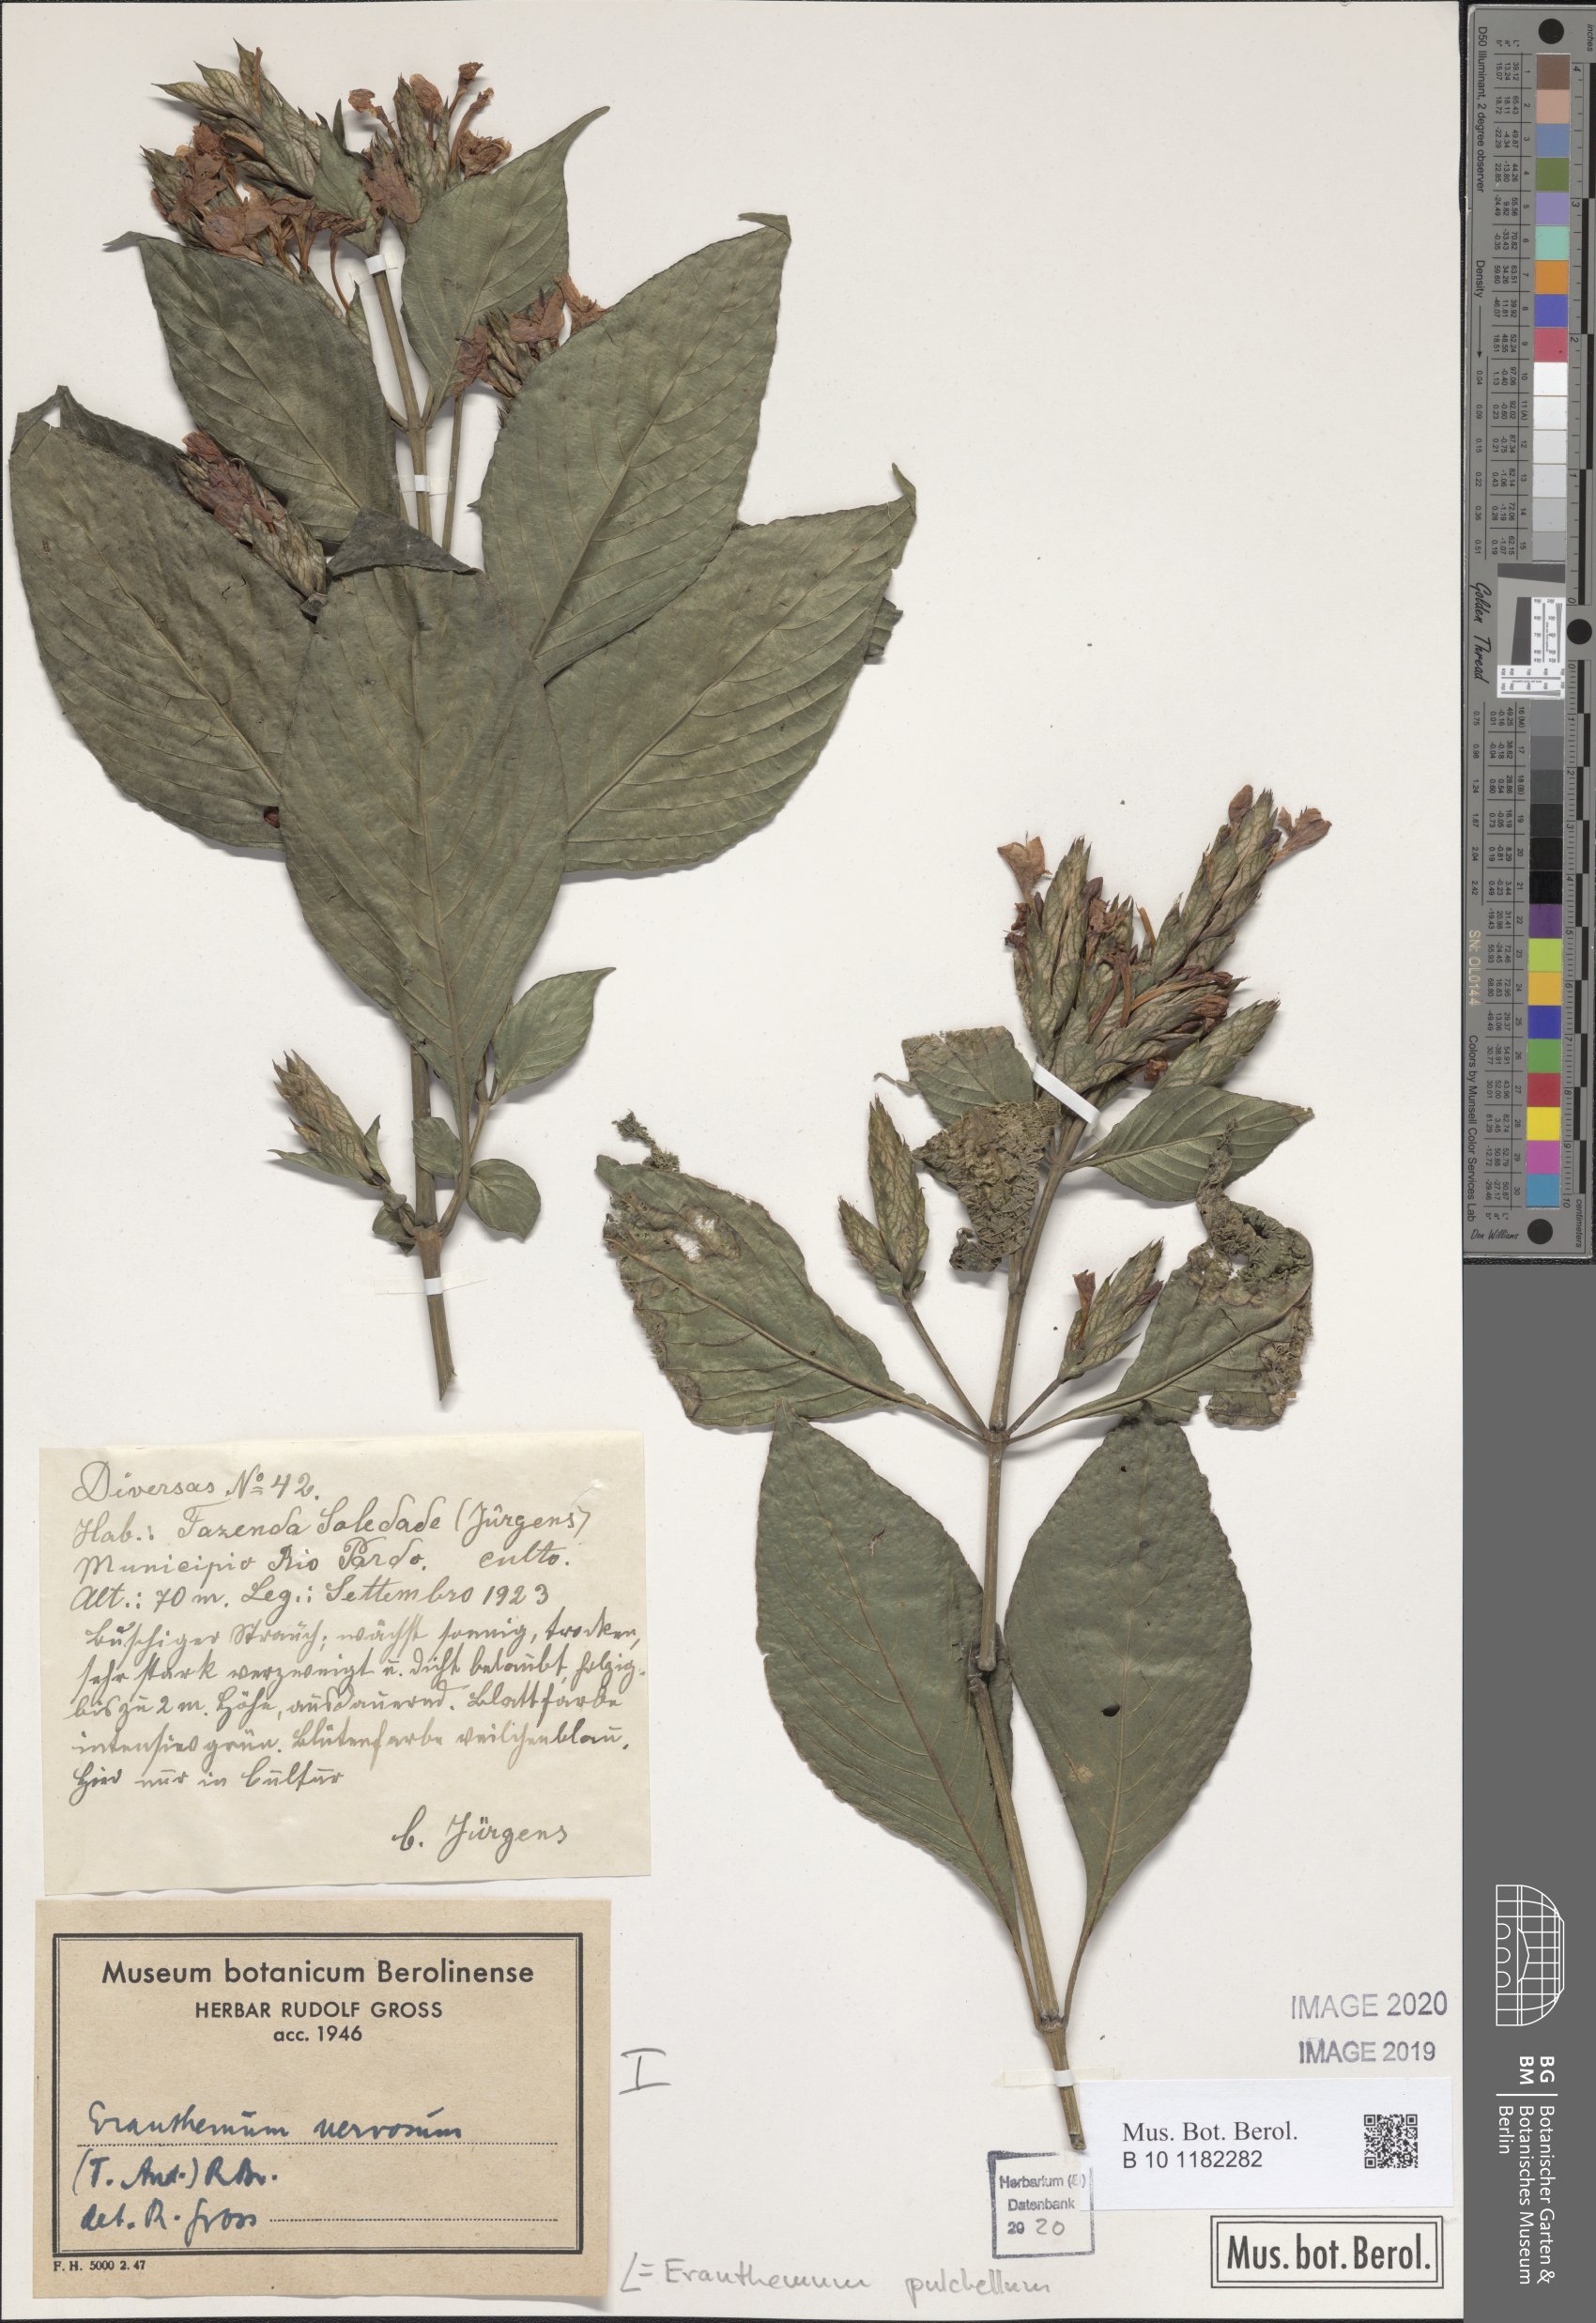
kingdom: Plantae
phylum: Tracheophyta
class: Magnoliopsida
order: Lamiales
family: Acanthaceae
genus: Eranthemum
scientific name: Eranthemum pulchellum
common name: Blue-sage
